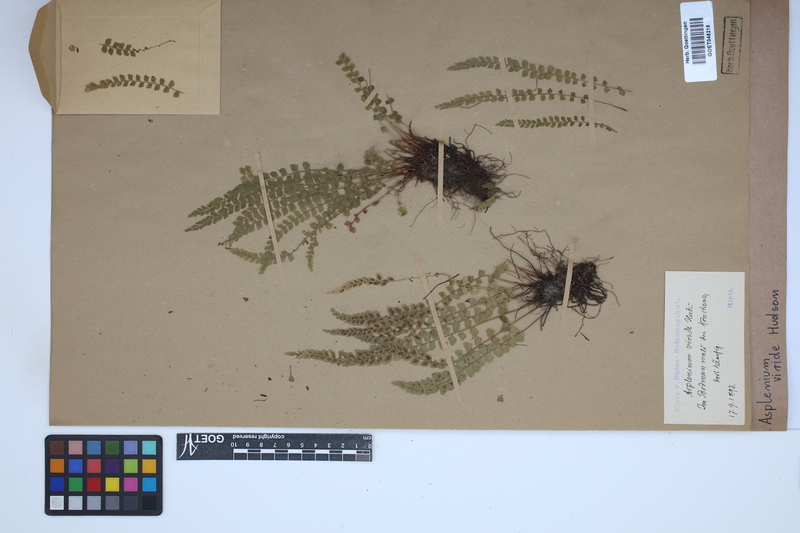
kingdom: Plantae
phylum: Tracheophyta
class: Polypodiopsida
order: Polypodiales
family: Aspleniaceae
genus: Asplenium
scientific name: Asplenium viride
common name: Green spleenwort
